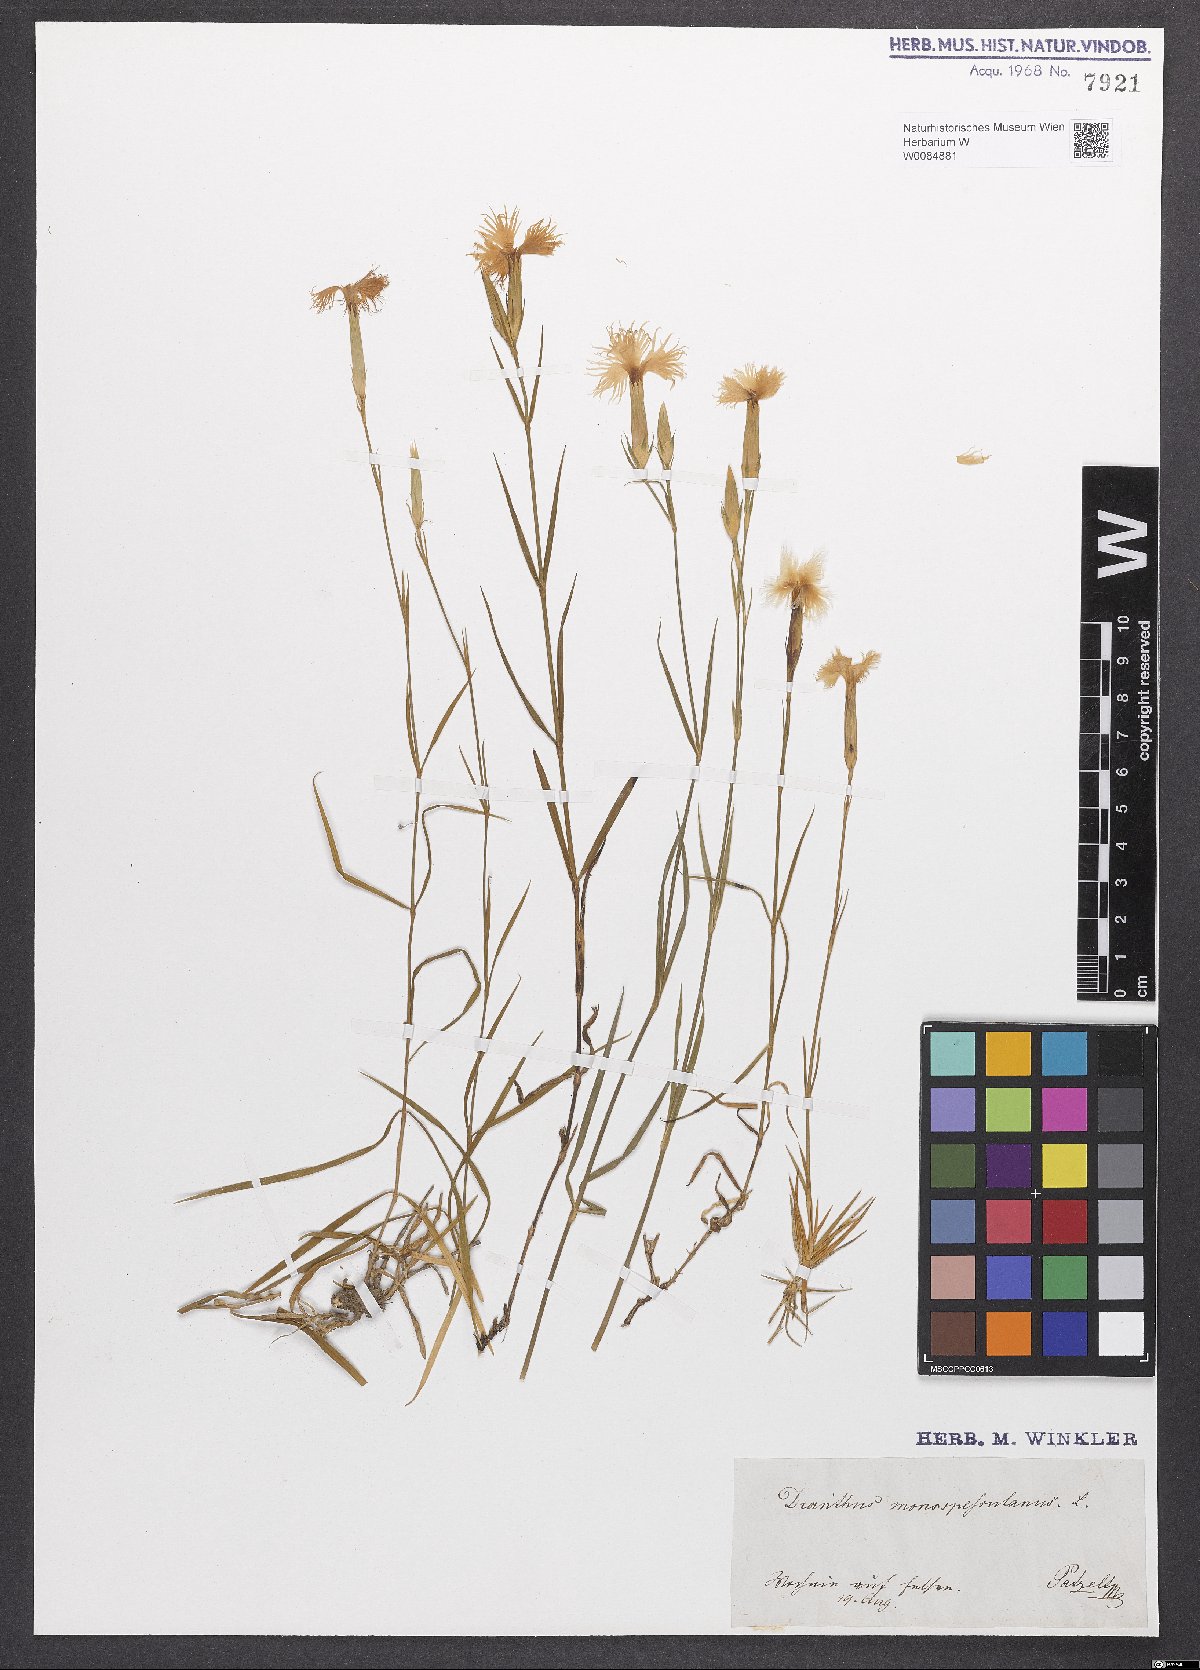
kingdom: Plantae
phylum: Tracheophyta
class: Magnoliopsida
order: Caryophyllales
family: Caryophyllaceae
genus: Dianthus
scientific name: Dianthus hyssopifolius
